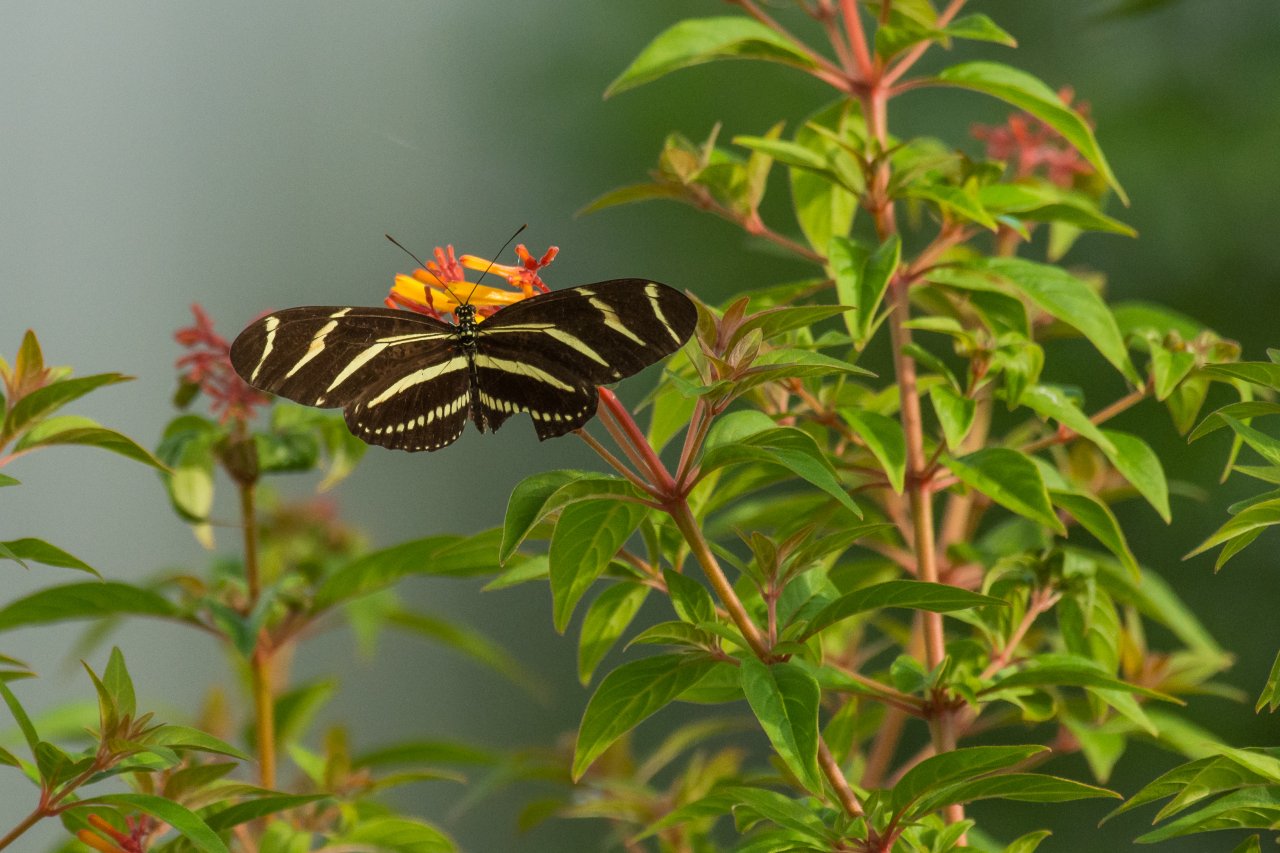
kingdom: Animalia
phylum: Arthropoda
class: Insecta
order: Lepidoptera
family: Nymphalidae
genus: Heliconius
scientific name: Heliconius charithonia
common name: Zebra Longwing
